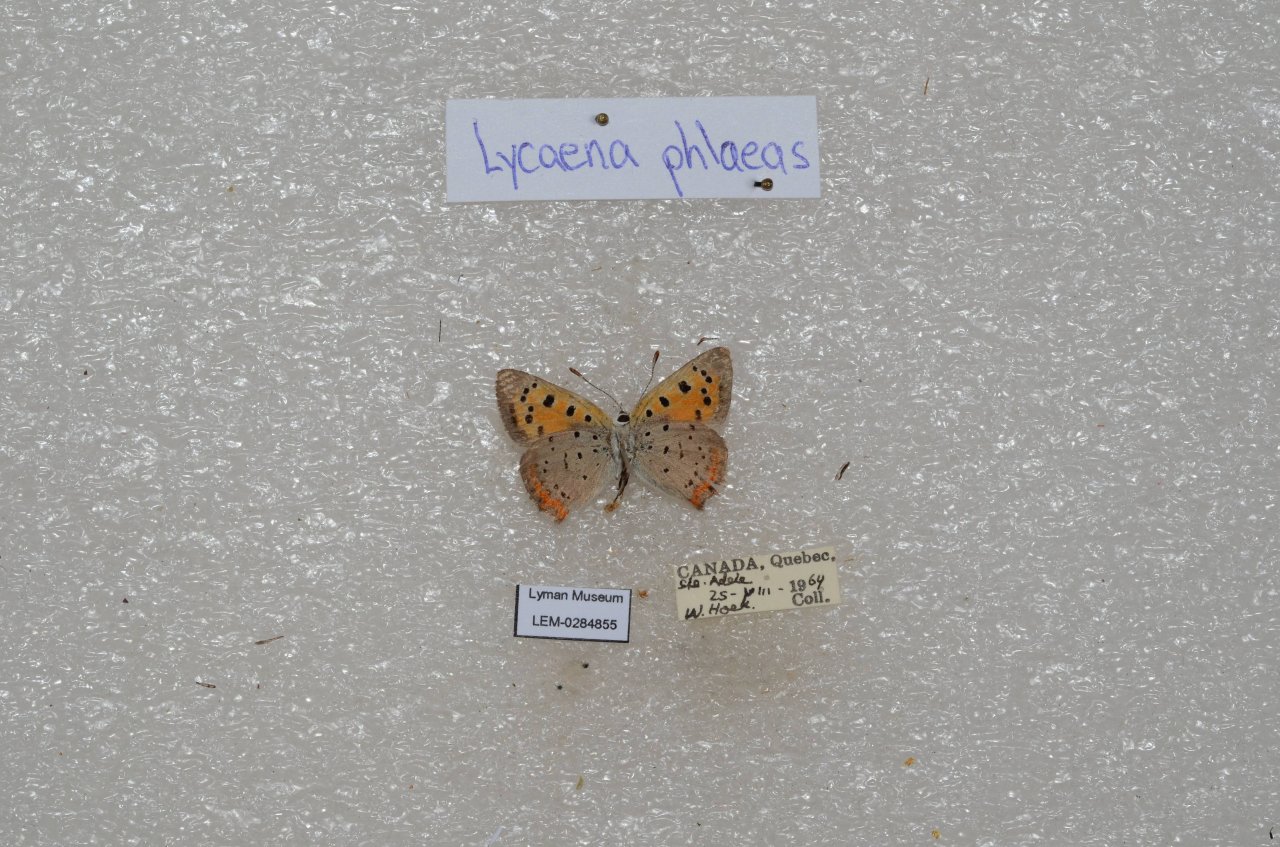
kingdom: Animalia
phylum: Arthropoda
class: Insecta
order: Lepidoptera
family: Lycaenidae
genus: Lycaena
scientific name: Lycaena phlaeas
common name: American Copper
